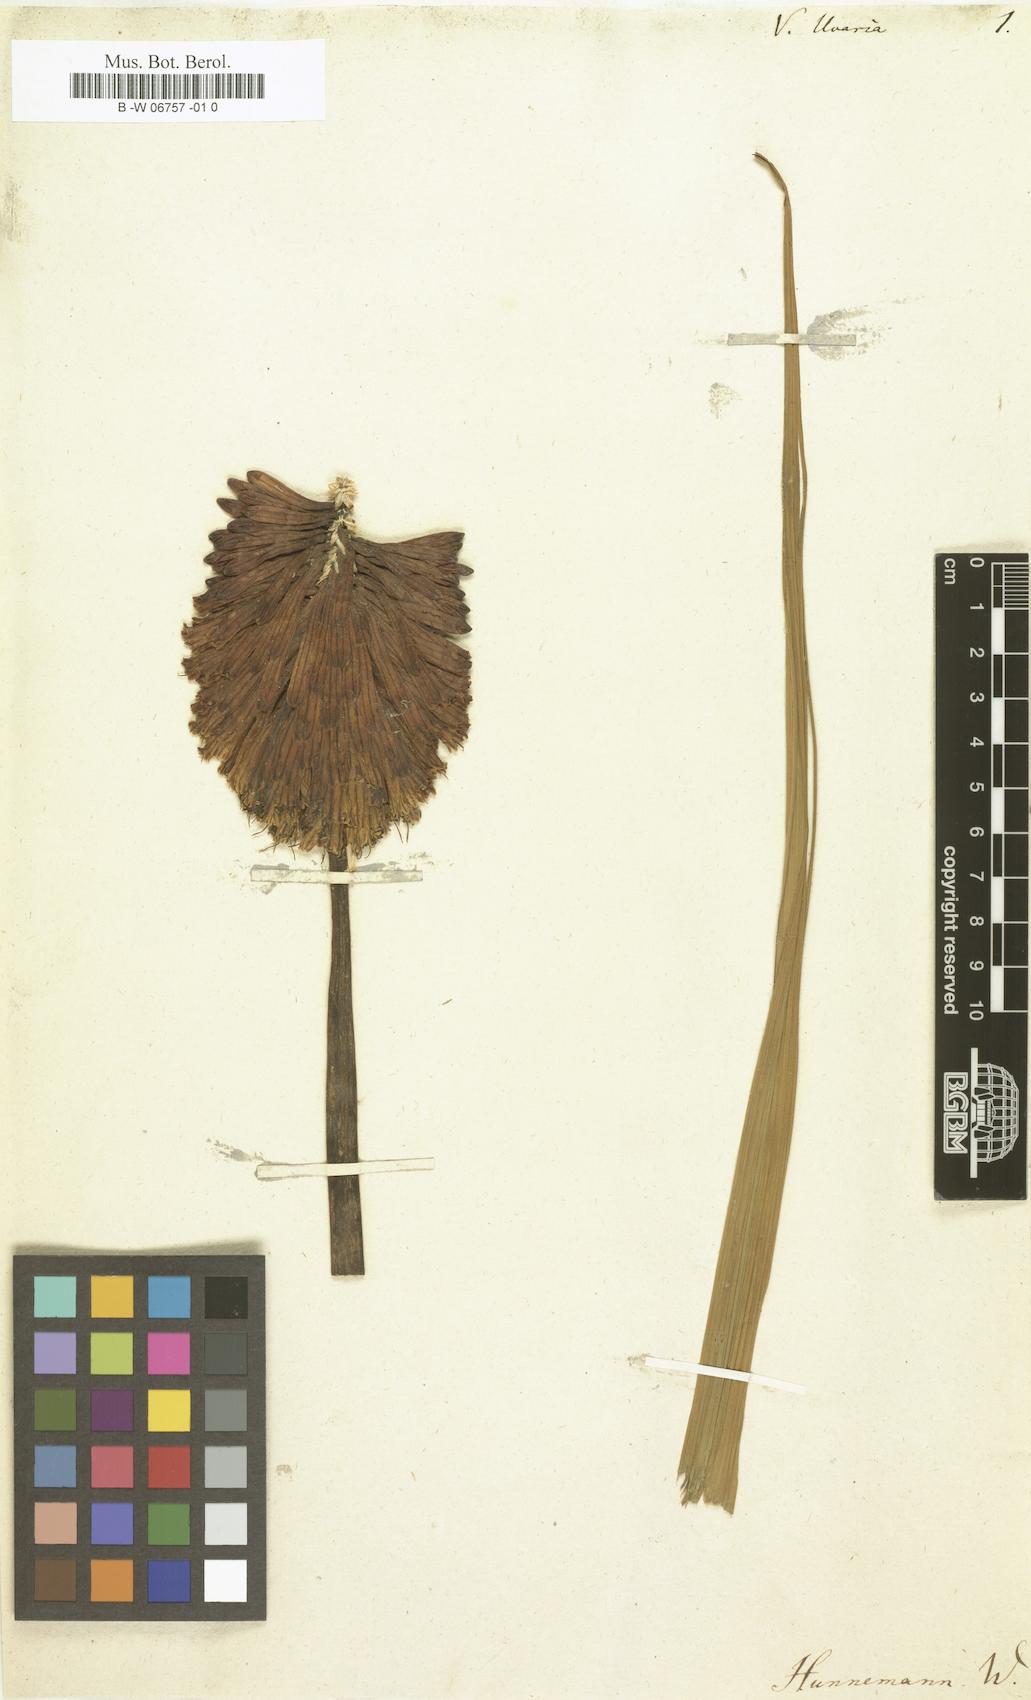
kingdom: Plantae
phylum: Tracheophyta
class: Liliopsida
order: Asparagales
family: Asphodelaceae
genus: Kniphofia
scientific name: Kniphofia uvaria
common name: Red-hot-poker
